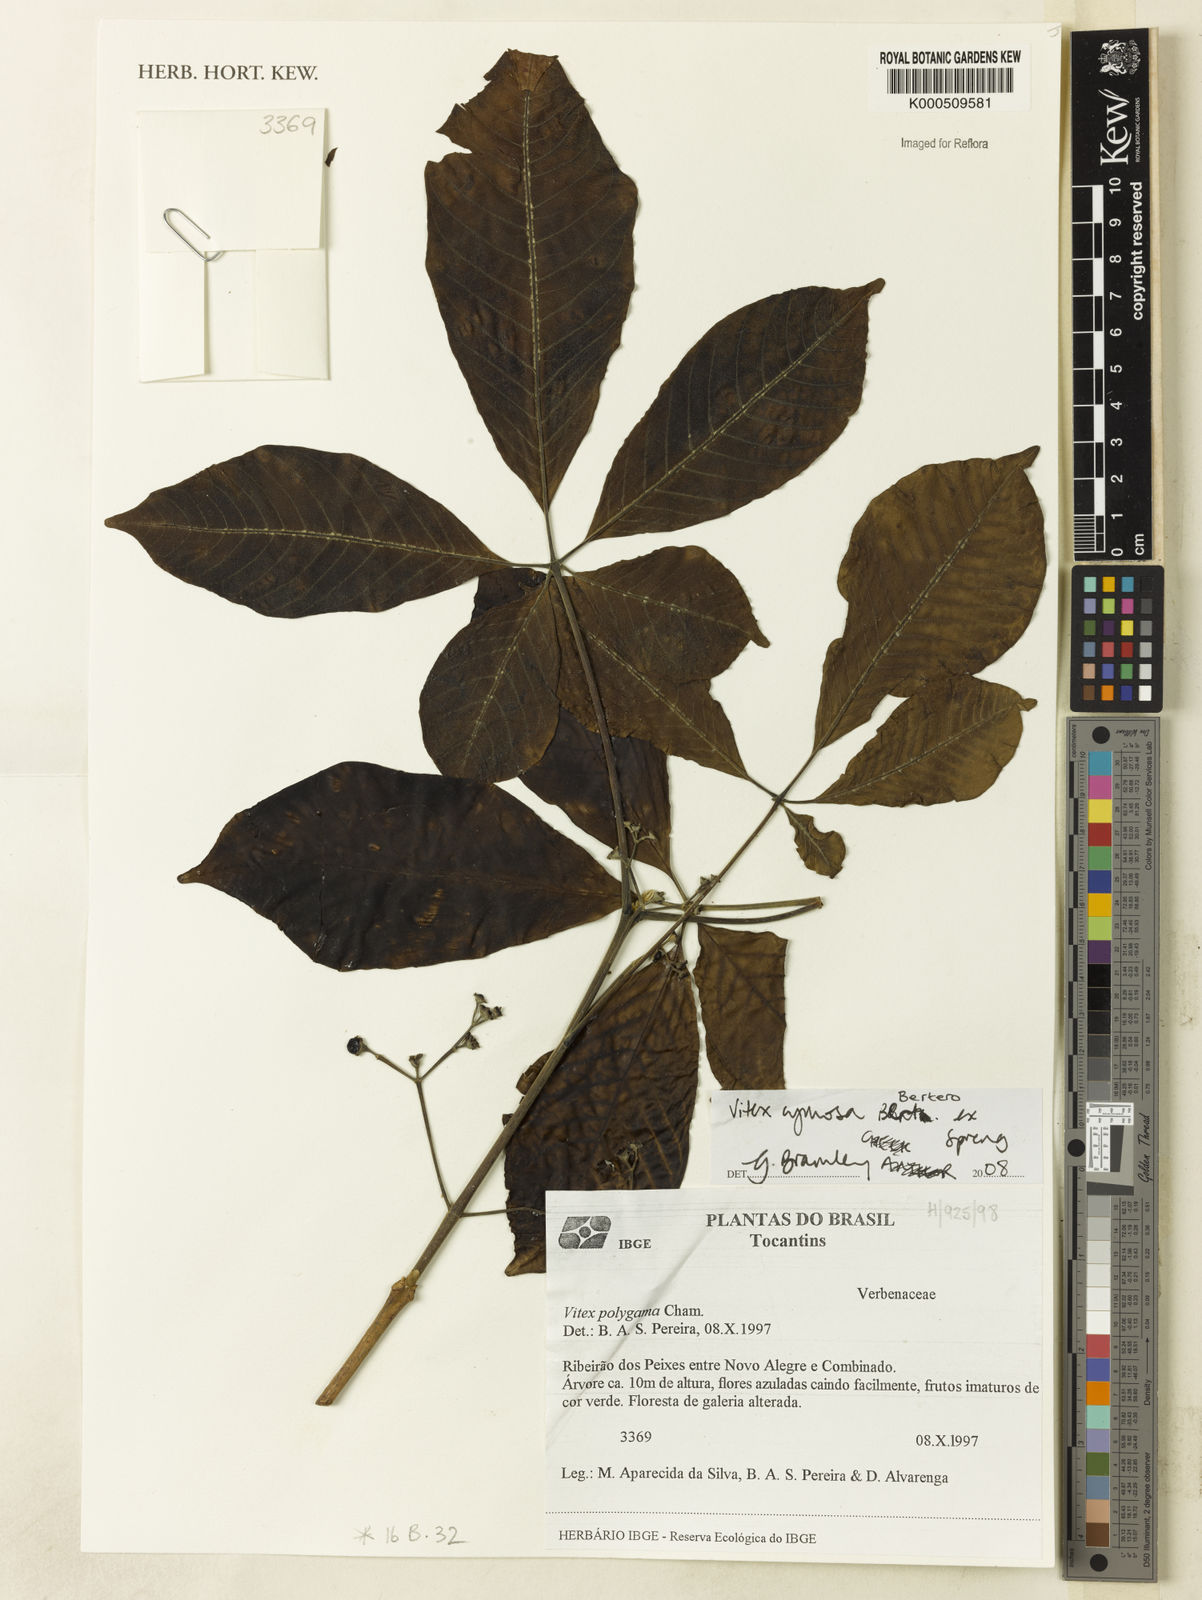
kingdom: Plantae
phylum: Tracheophyta
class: Magnoliopsida
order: Lamiales
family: Lamiaceae
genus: Vitex
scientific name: Vitex cymosa
